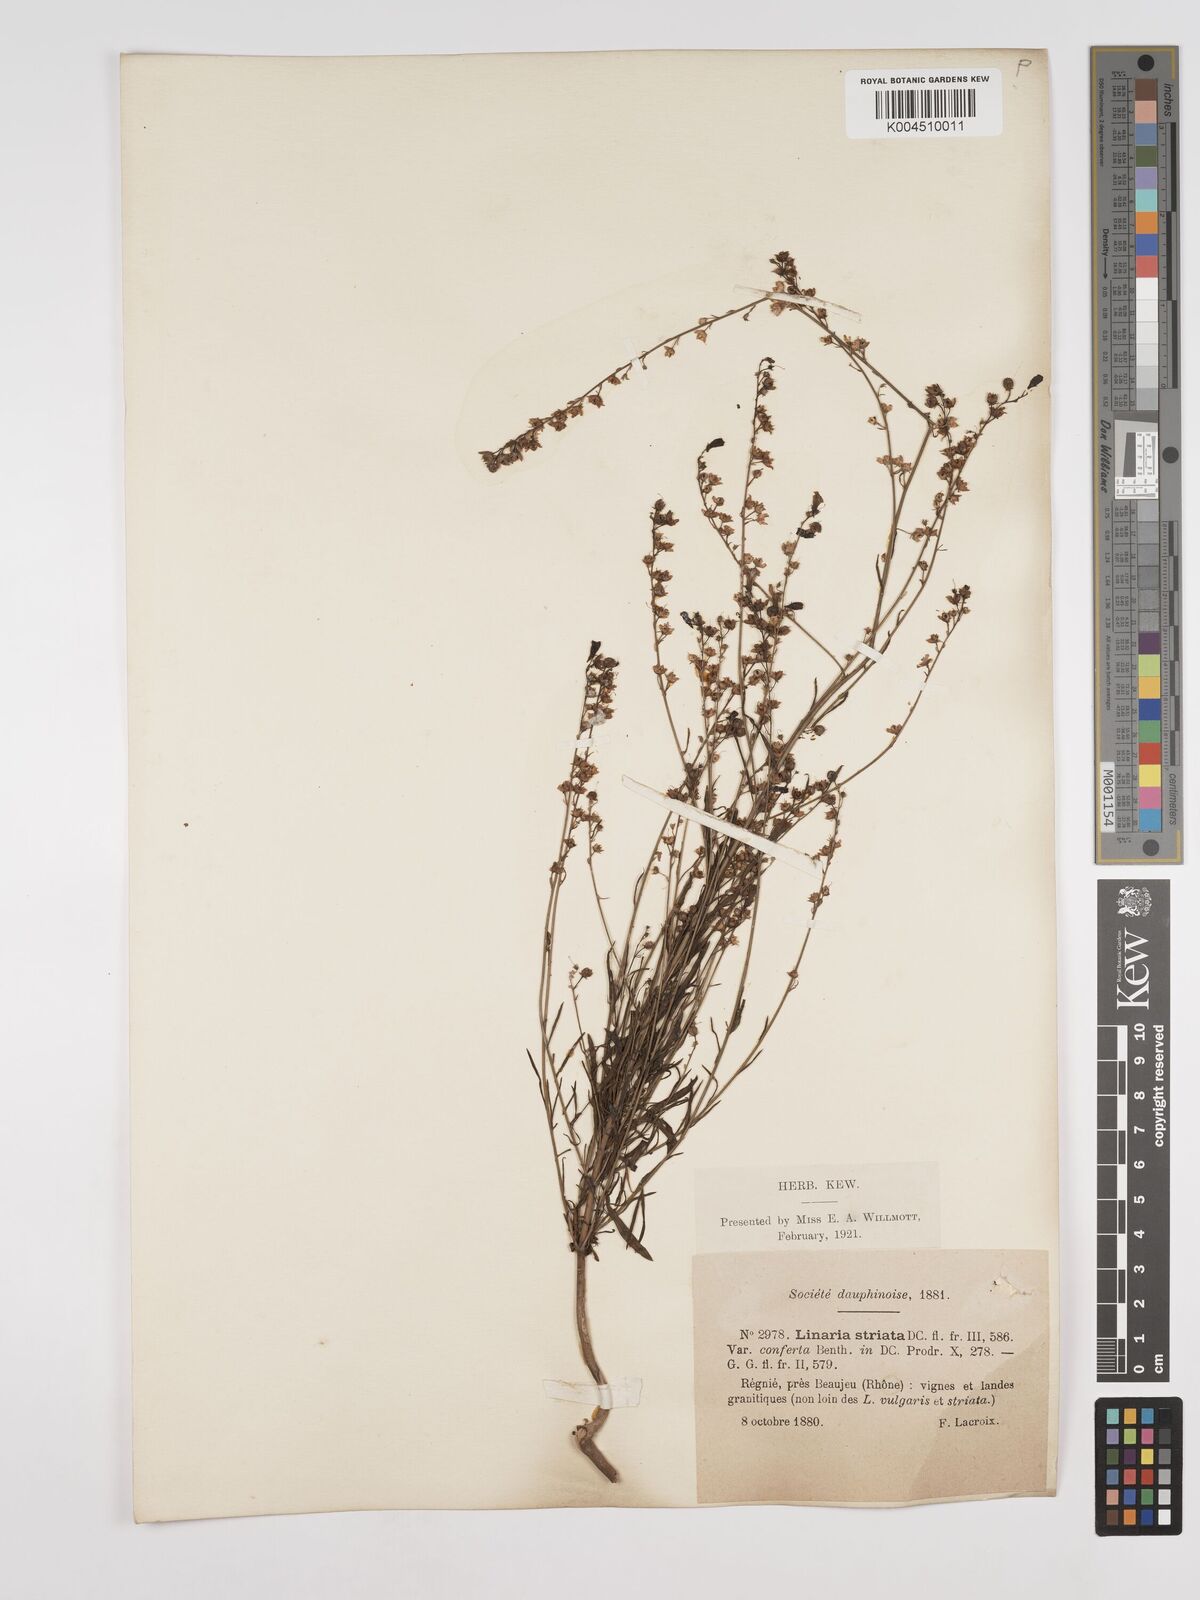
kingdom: Plantae
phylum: Tracheophyta
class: Magnoliopsida
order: Lamiales
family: Plantaginaceae
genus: Linaria
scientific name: Linaria repens
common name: Pale toadflax
